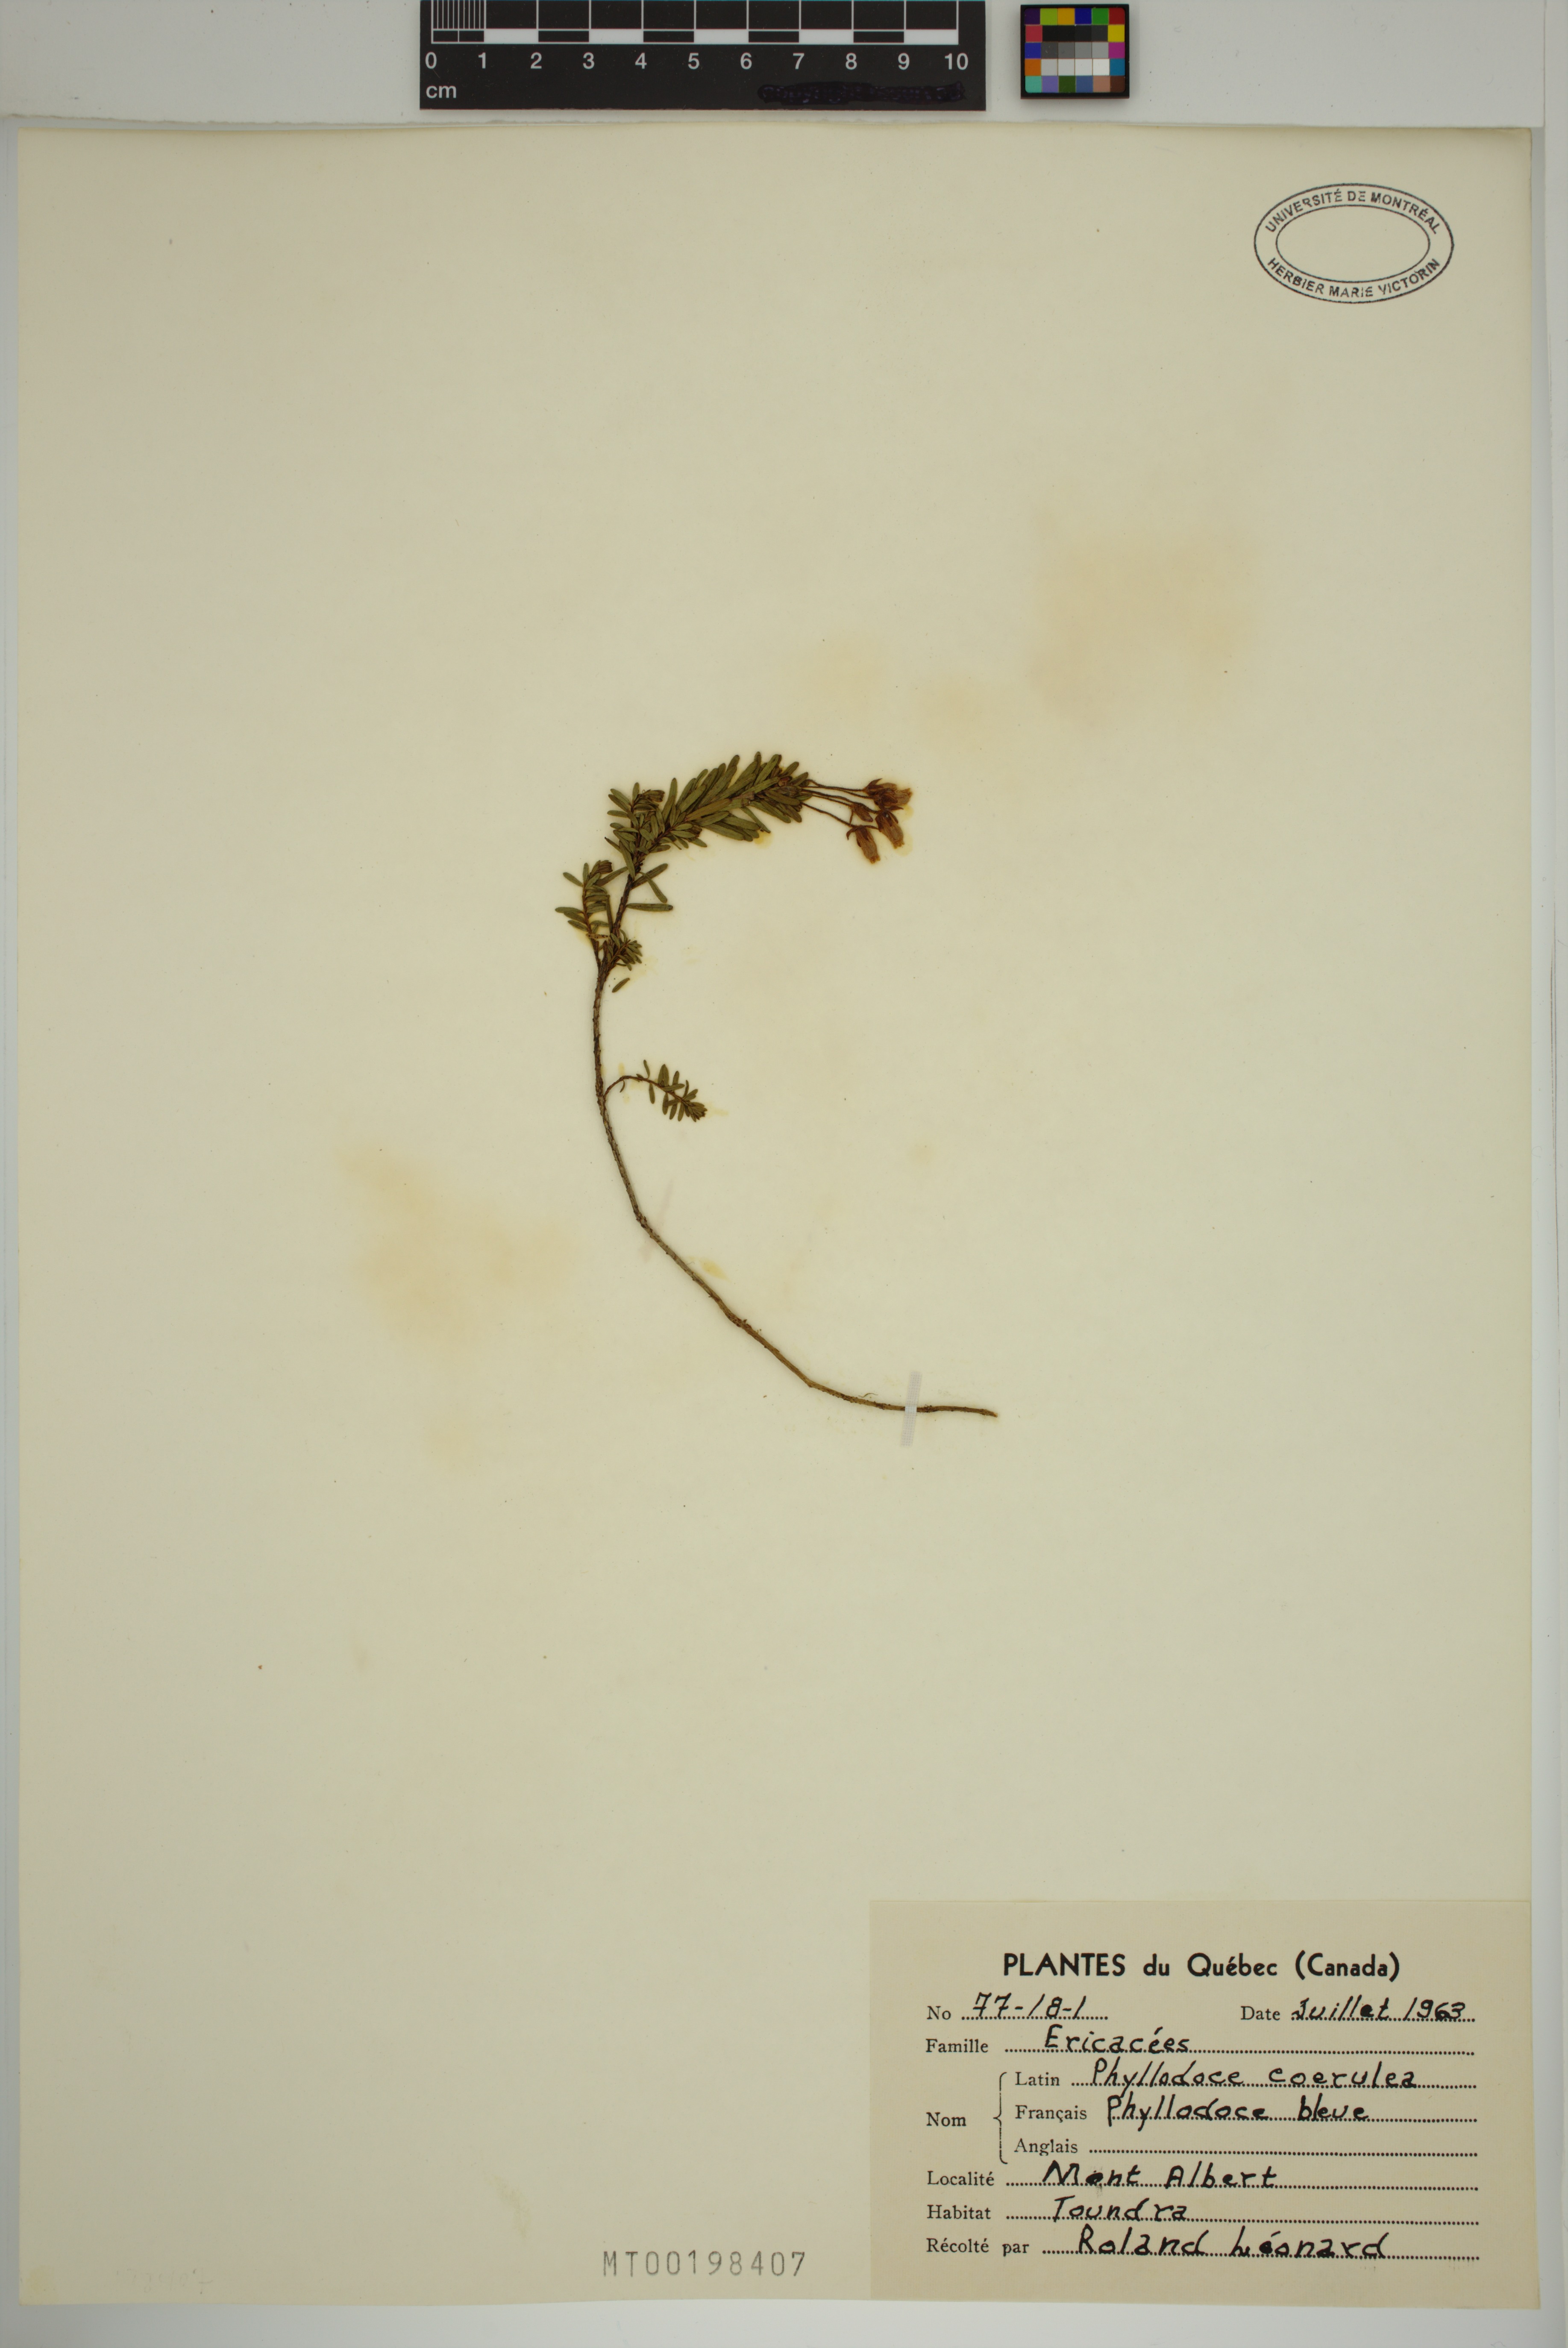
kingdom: Plantae
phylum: Tracheophyta
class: Magnoliopsida
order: Ericales
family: Ericaceae
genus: Phyllodoce
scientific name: Phyllodoce caerulea
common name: Blue heath
